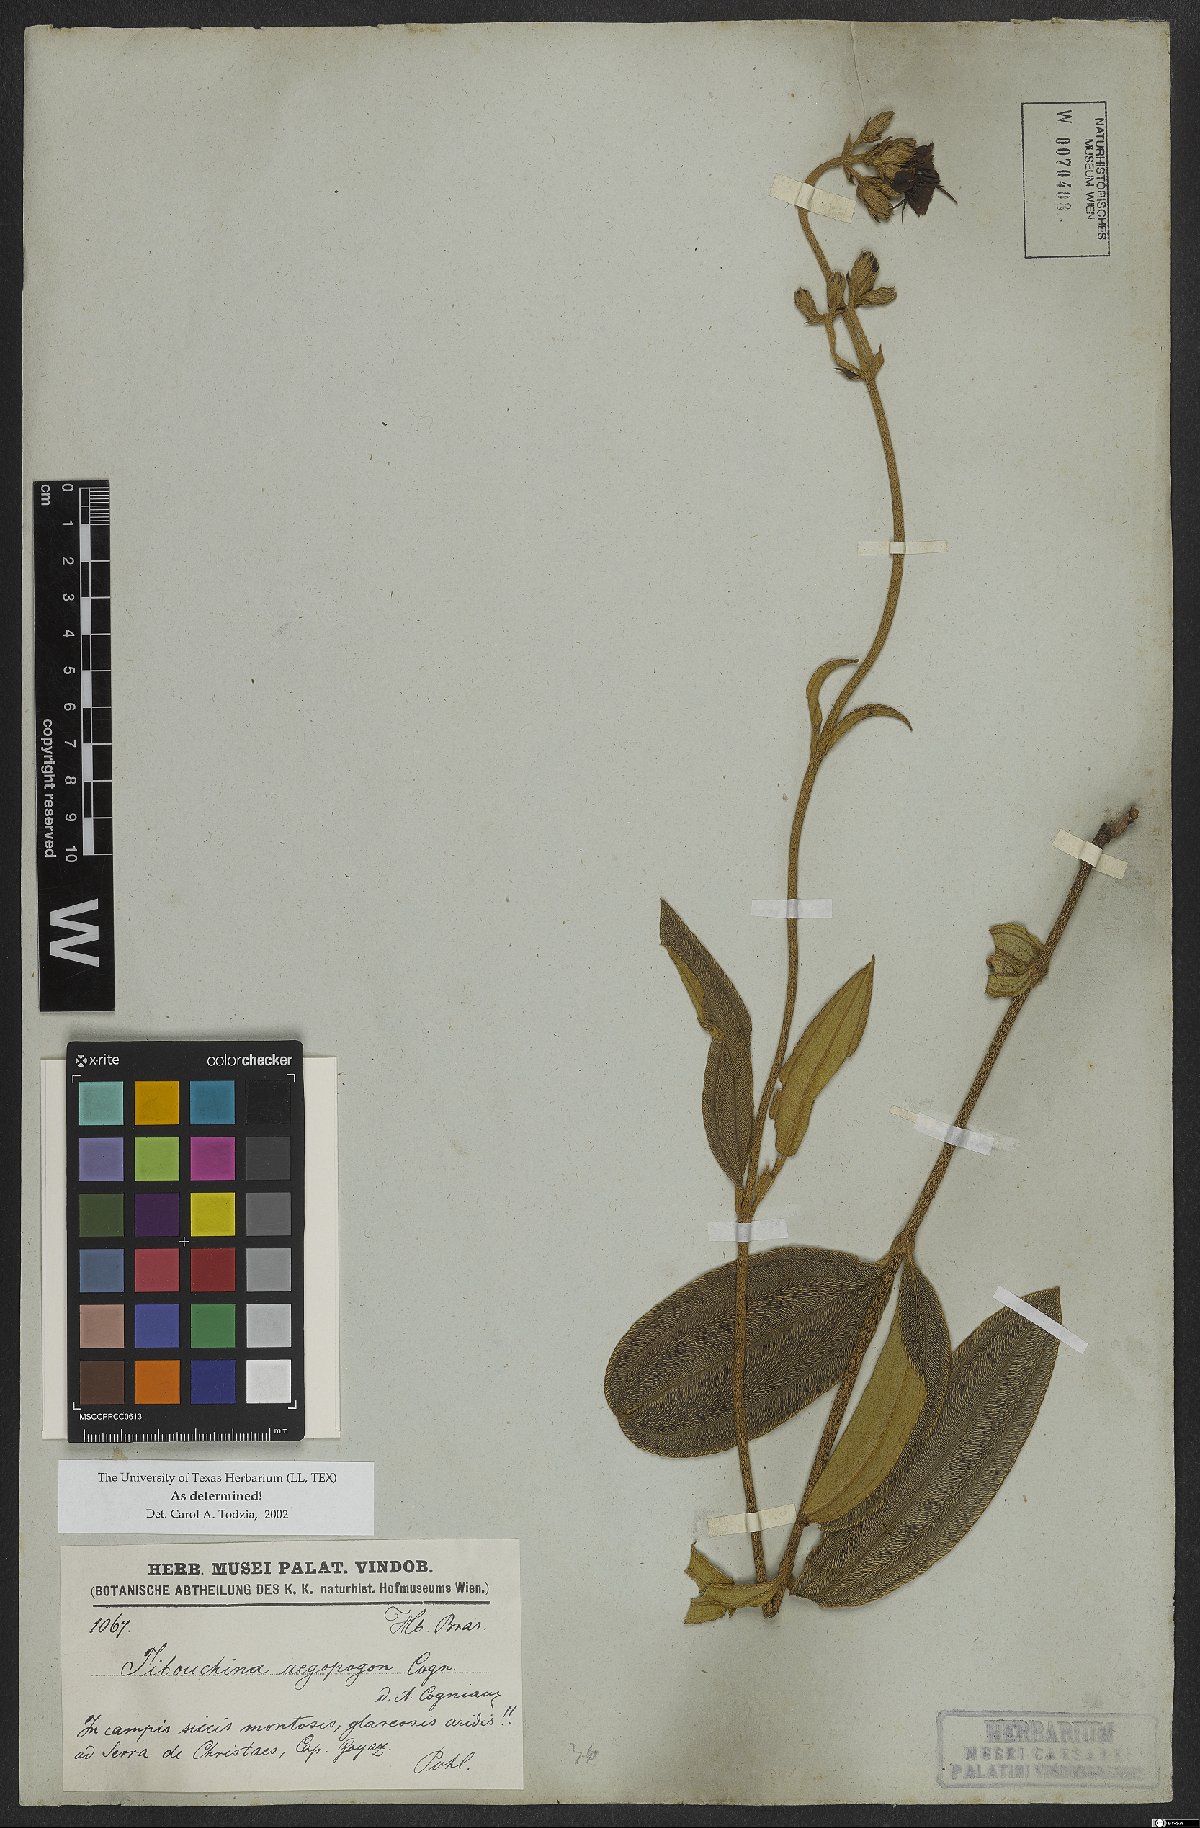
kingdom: Plantae
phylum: Tracheophyta
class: Magnoliopsida
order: Myrtales
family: Melastomataceae
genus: Pleroma
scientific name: Pleroma aegopogon
